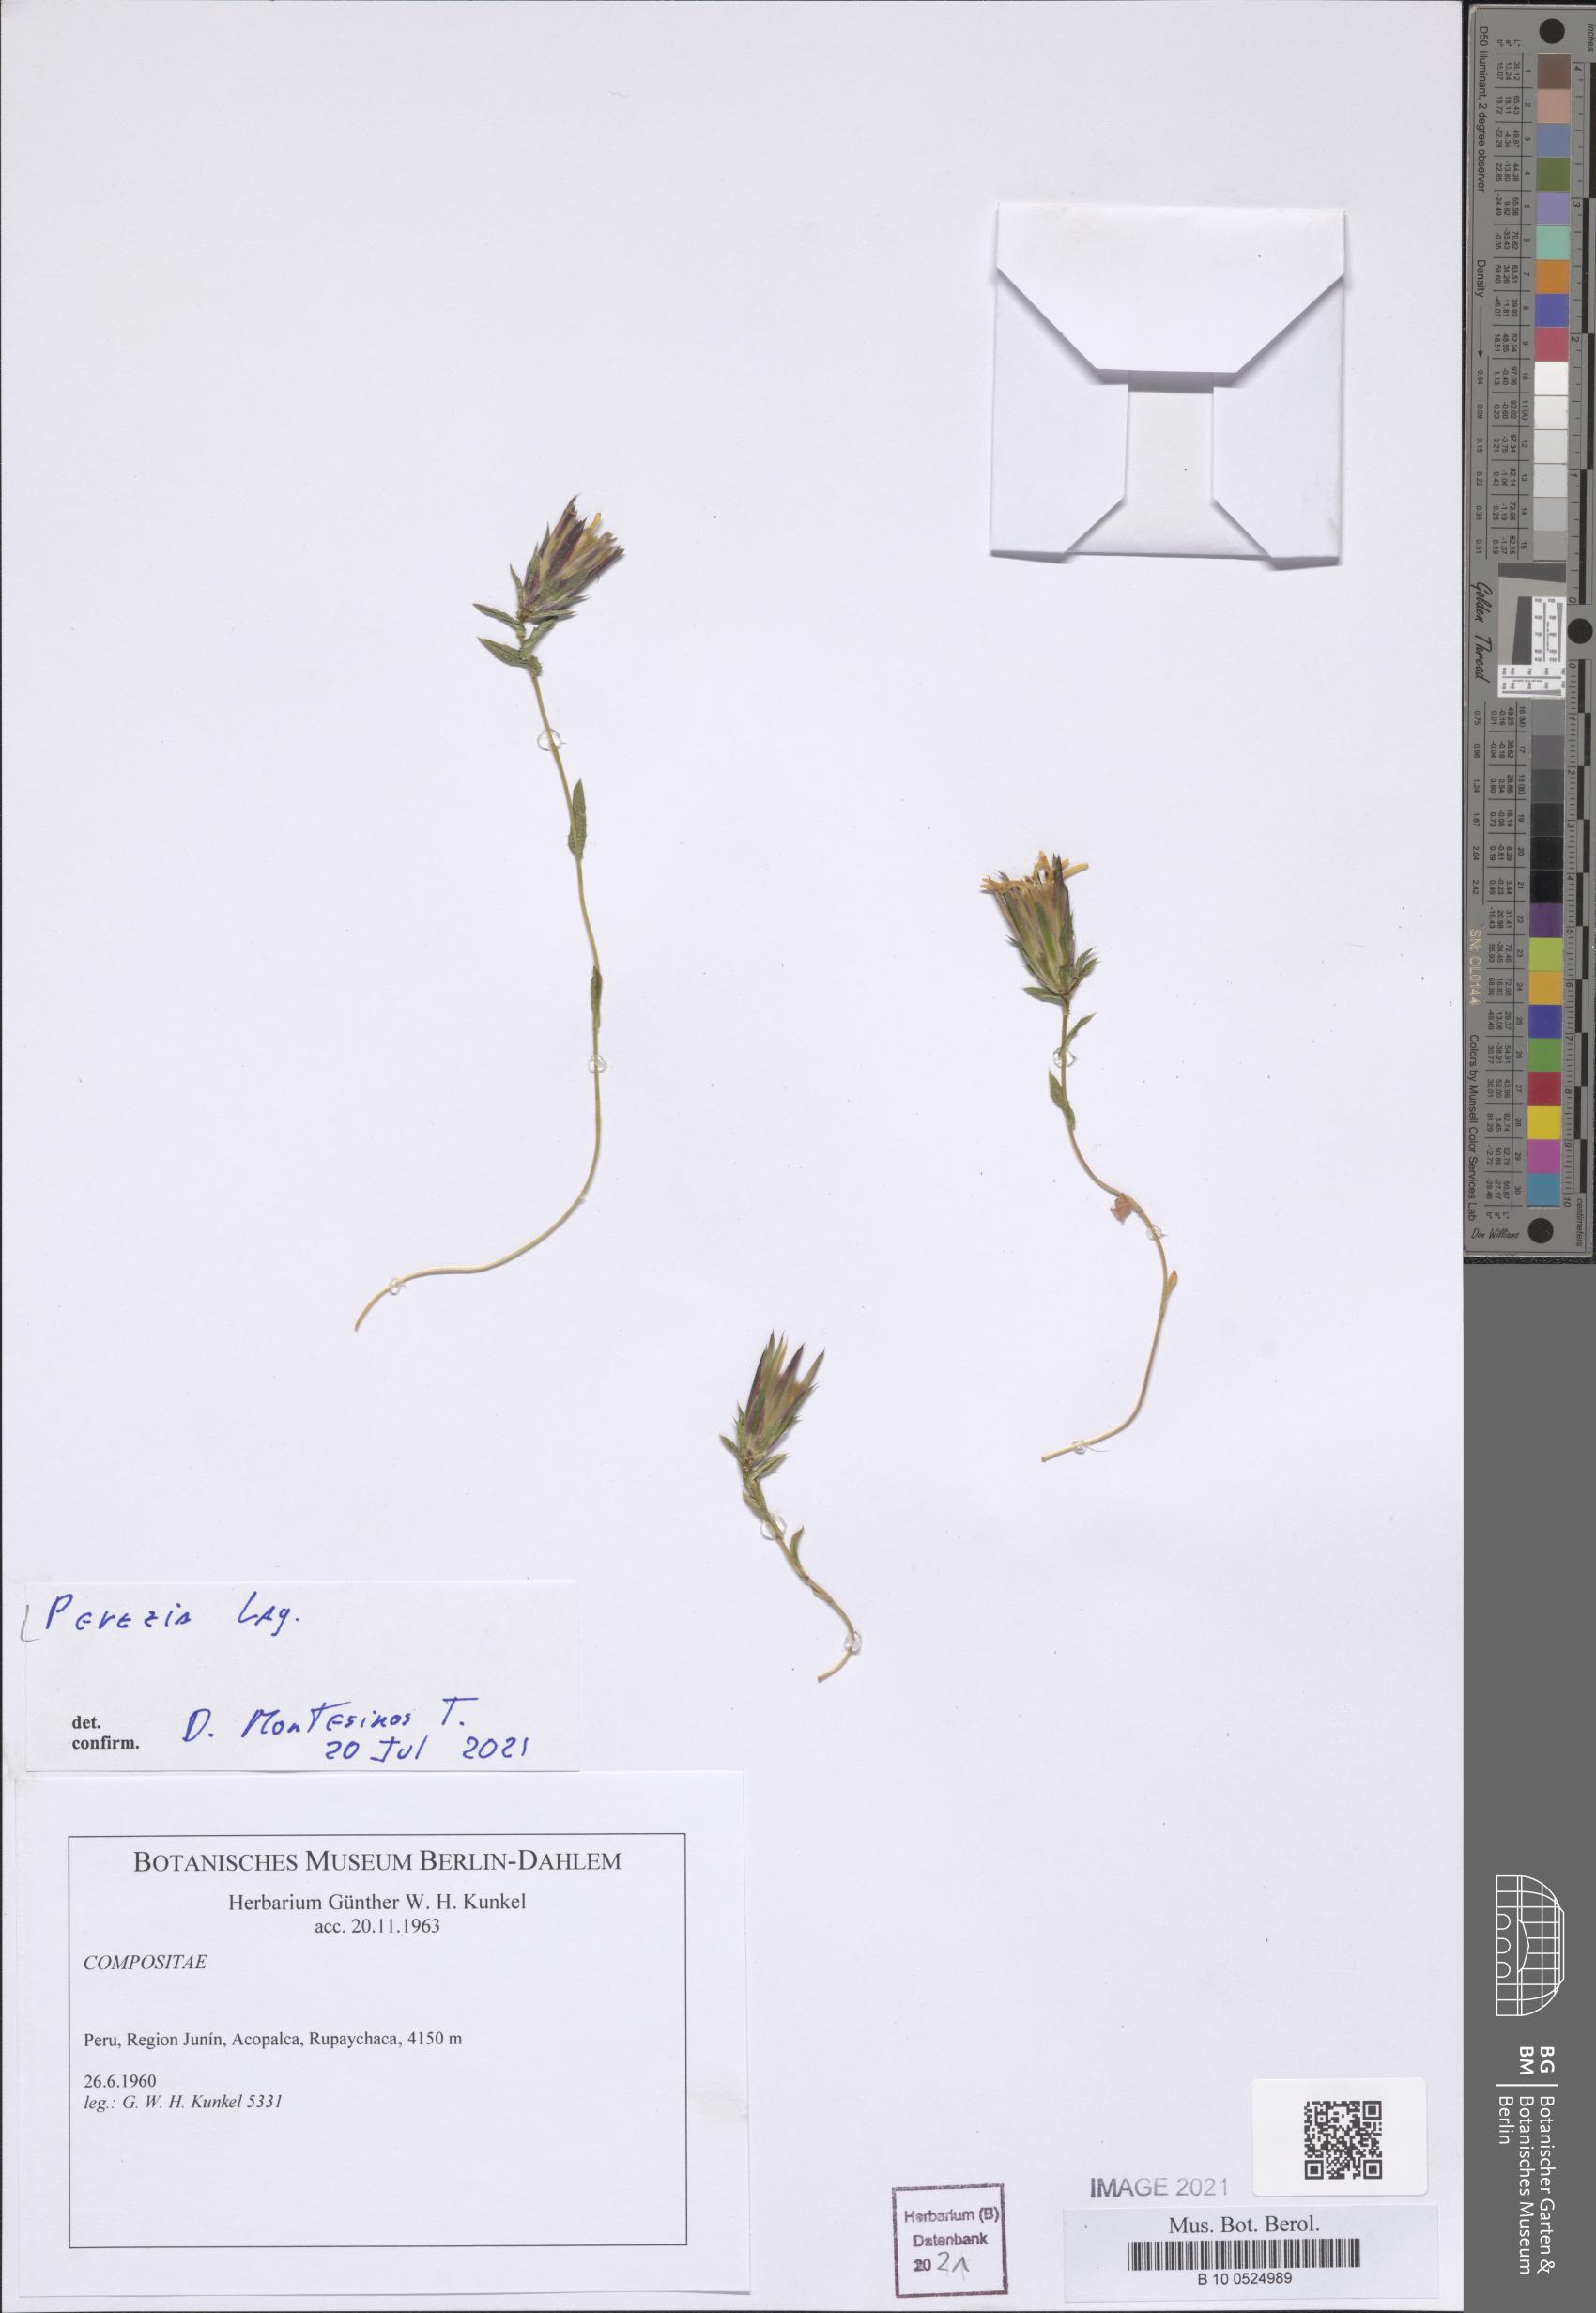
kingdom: Plantae
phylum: Tracheophyta
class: Magnoliopsida
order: Asterales
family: Asteraceae
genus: Perezia
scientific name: Perezia
